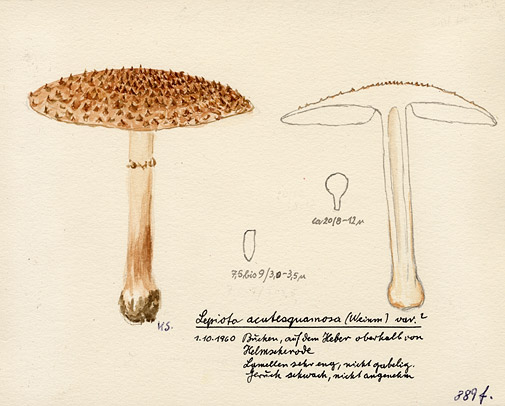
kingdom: Fungi
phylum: Basidiomycota
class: Agaricomycetes
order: Agaricales
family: Agaricaceae
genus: Echinoderma
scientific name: Echinoderma asperum
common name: Freckled dapperling
